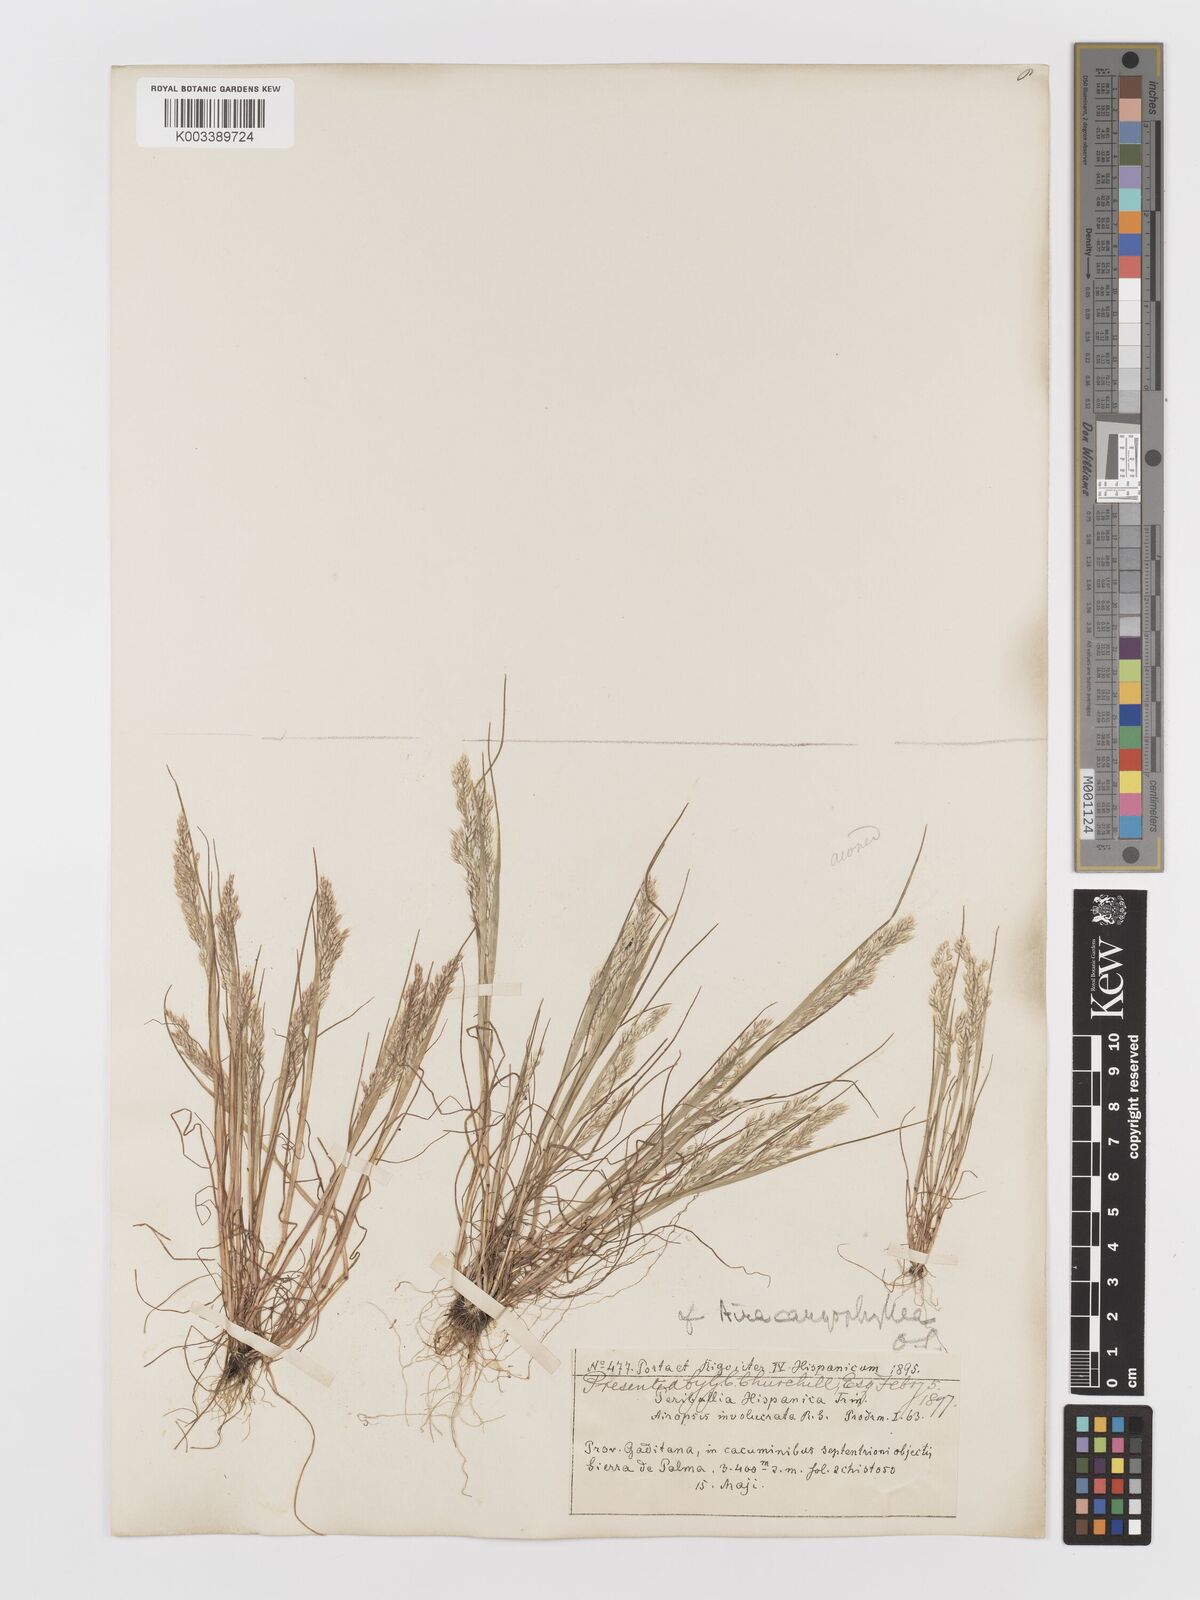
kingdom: Plantae
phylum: Tracheophyta
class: Liliopsida
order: Poales
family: Poaceae
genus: Aira
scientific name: Aira caryophyllea
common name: Silver hairgrass
